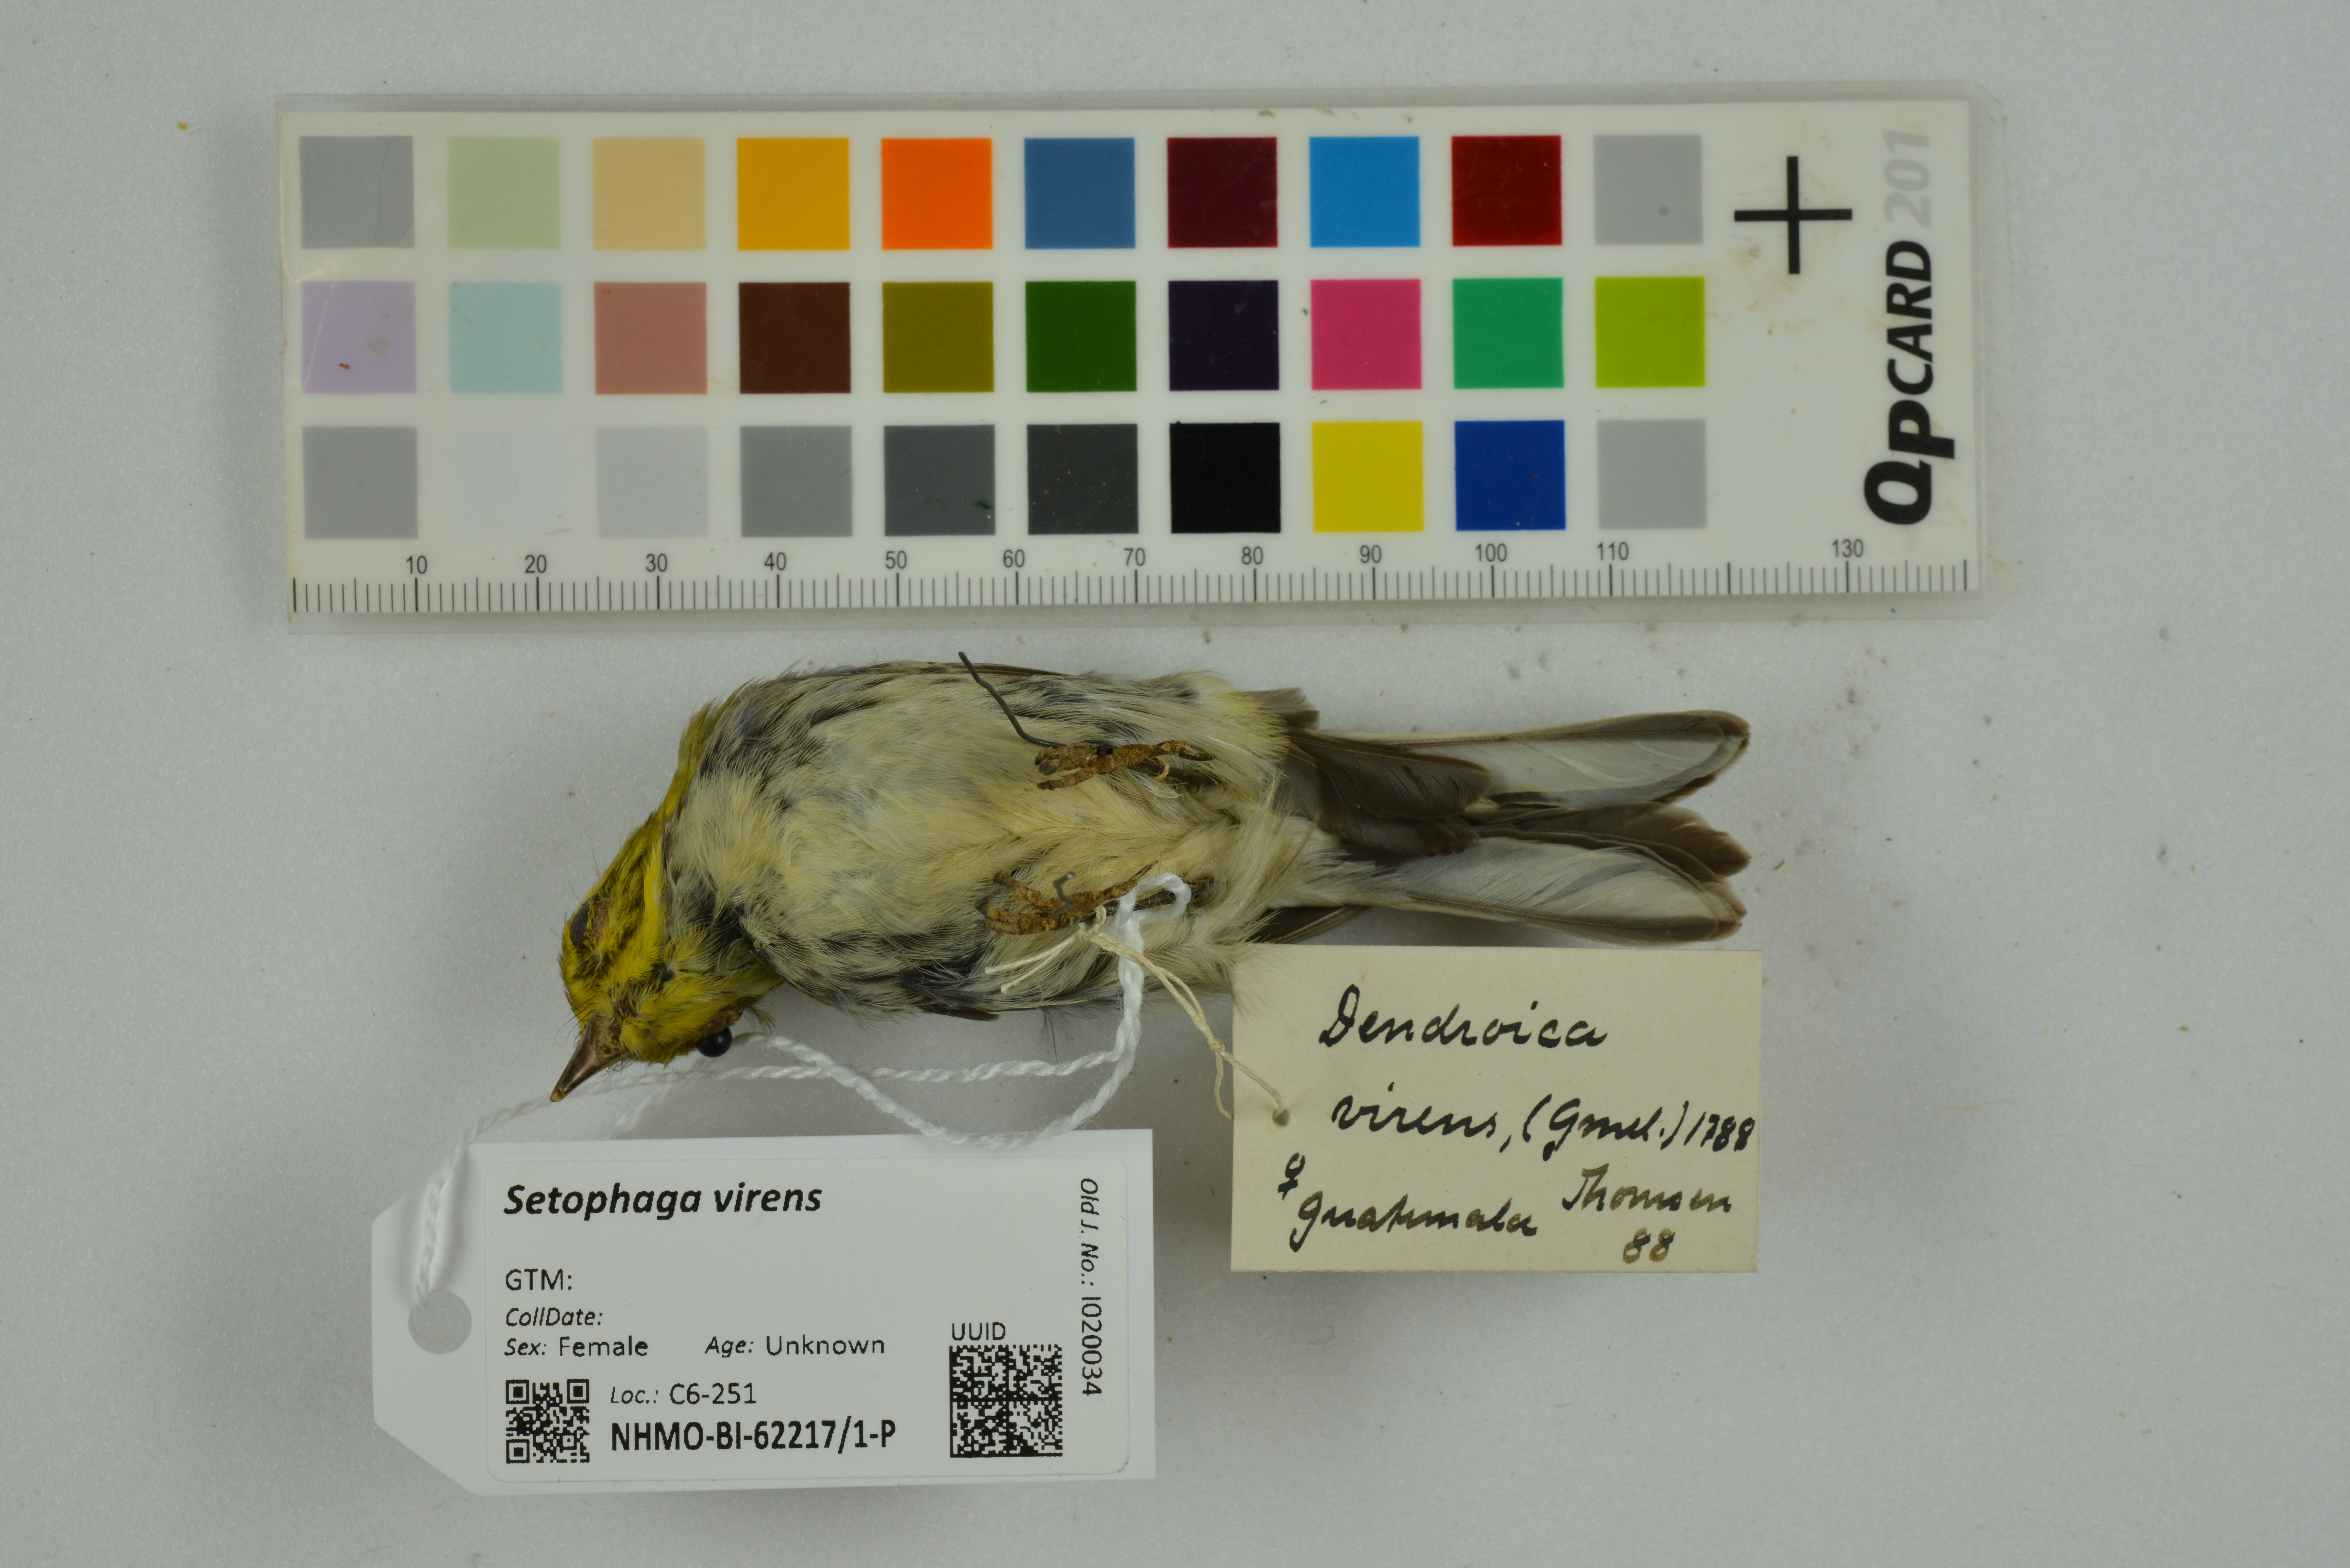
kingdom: Animalia
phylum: Chordata
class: Aves
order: Passeriformes
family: Parulidae
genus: Setophaga
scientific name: Setophaga virens
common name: Black-throated green warbler
